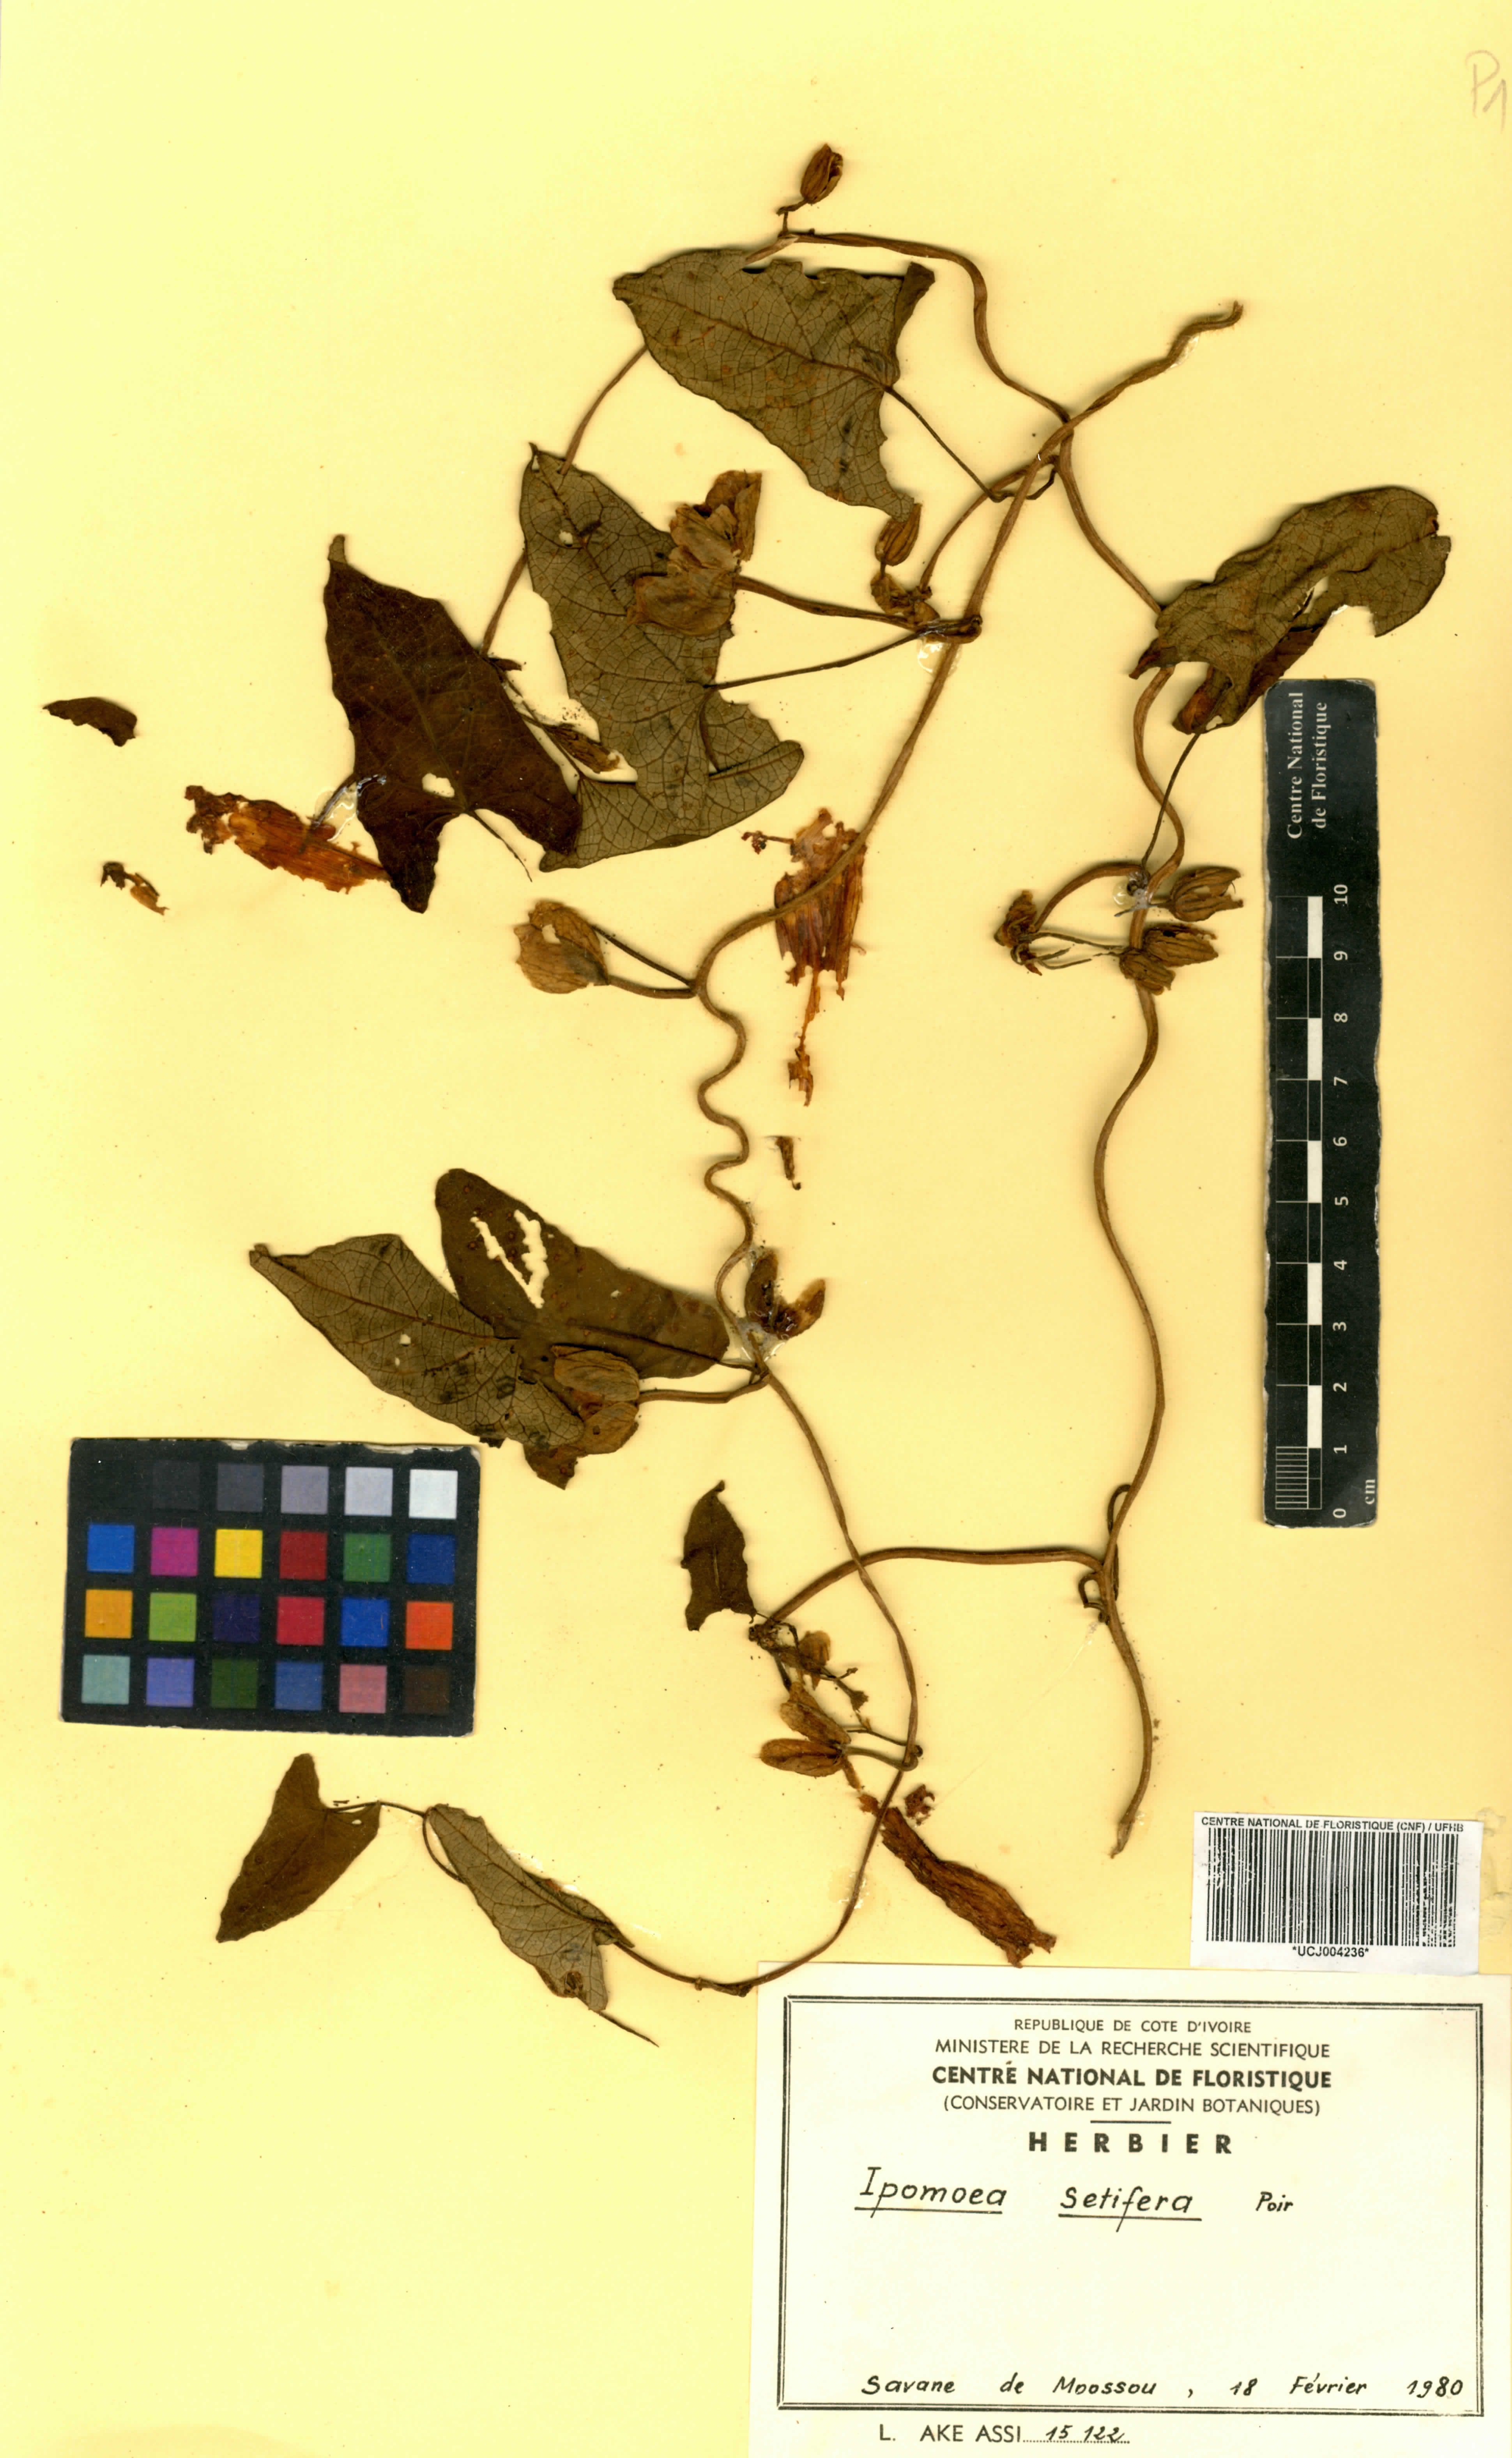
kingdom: Plantae
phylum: Tracheophyta
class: Magnoliopsida
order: Solanales
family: Convolvulaceae
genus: Ipomoea
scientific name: Ipomoea setifera
